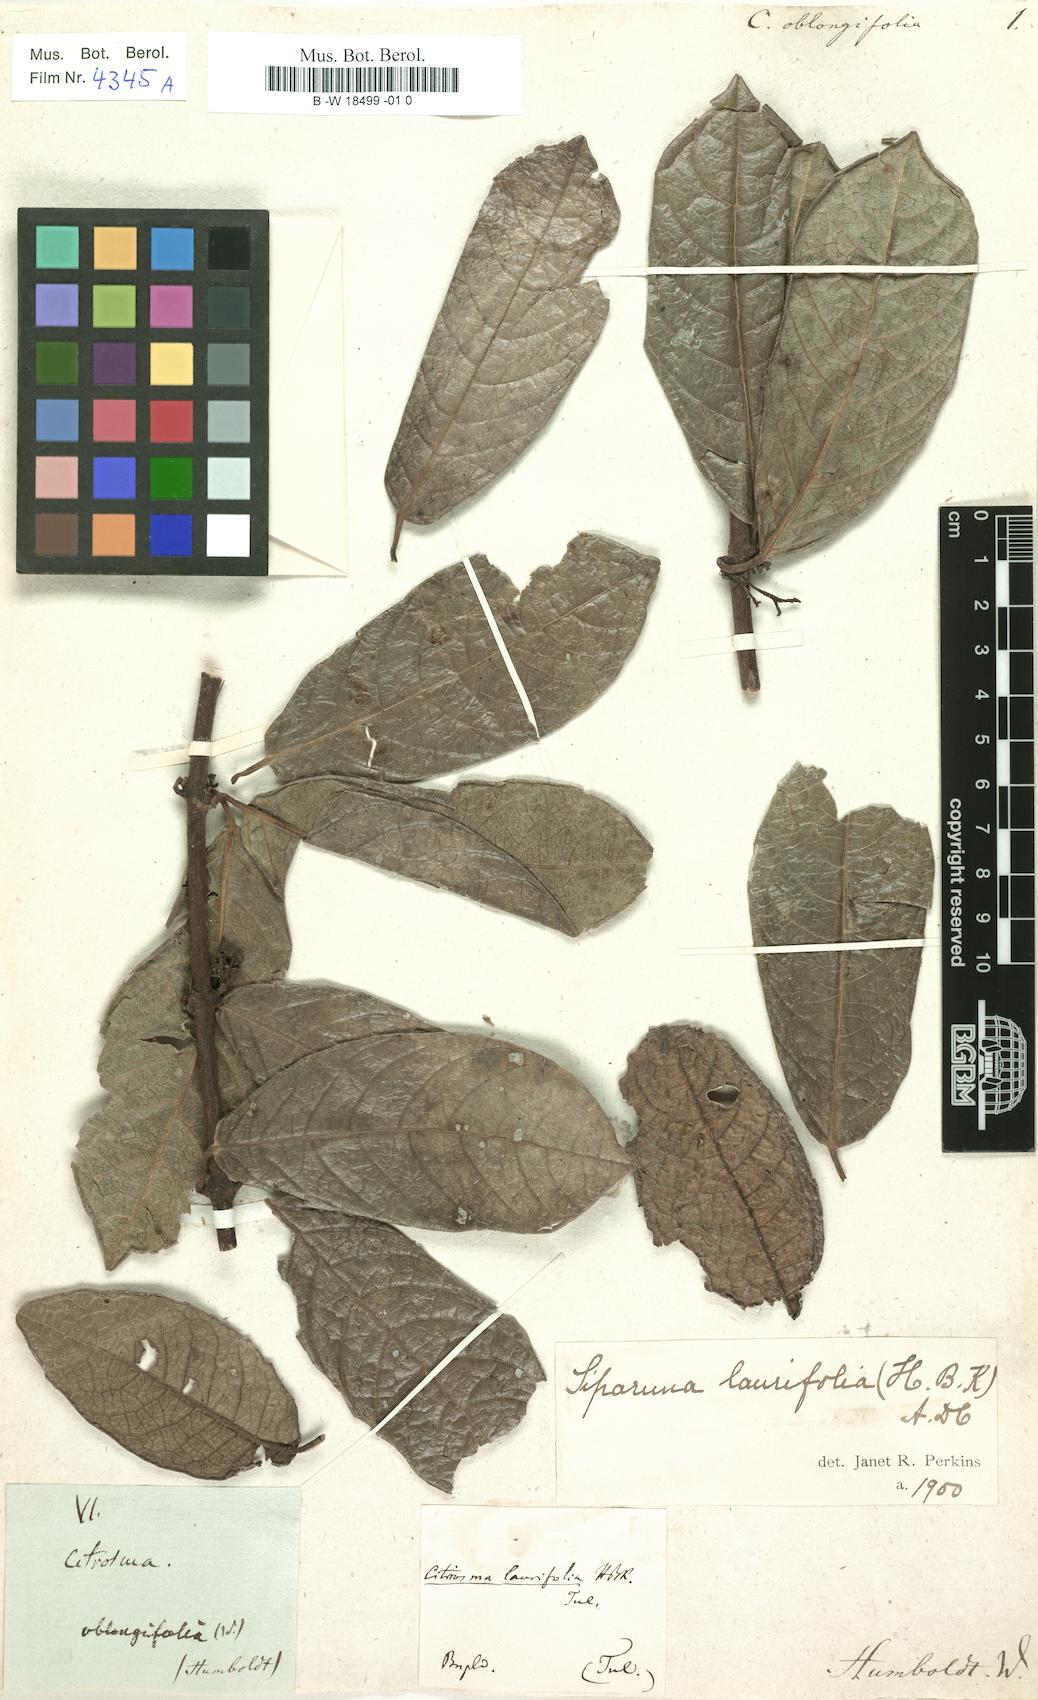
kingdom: Plantae
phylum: Tracheophyta
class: Magnoliopsida
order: Laurales
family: Siparunaceae
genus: Siparuna
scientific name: Siparuna poeppigii
